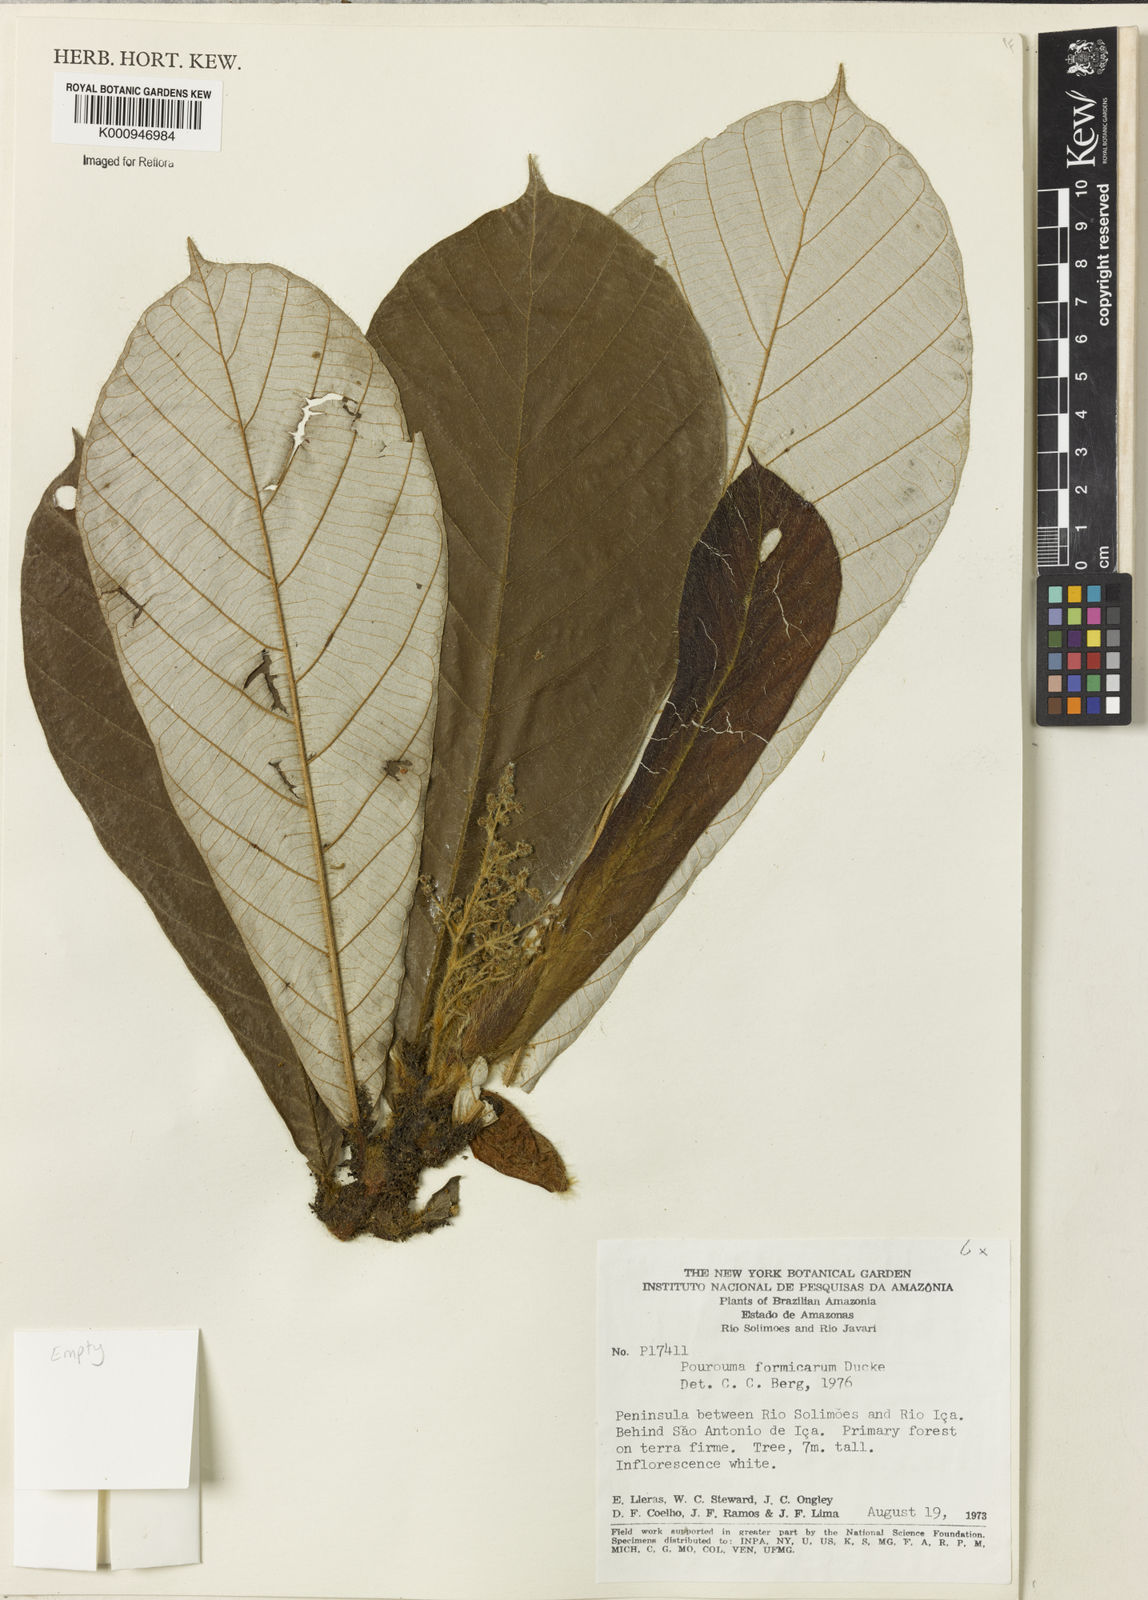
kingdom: Plantae
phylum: Tracheophyta
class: Magnoliopsida
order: Rosales
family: Urticaceae
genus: Pourouma
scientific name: Pourouma formicarum
